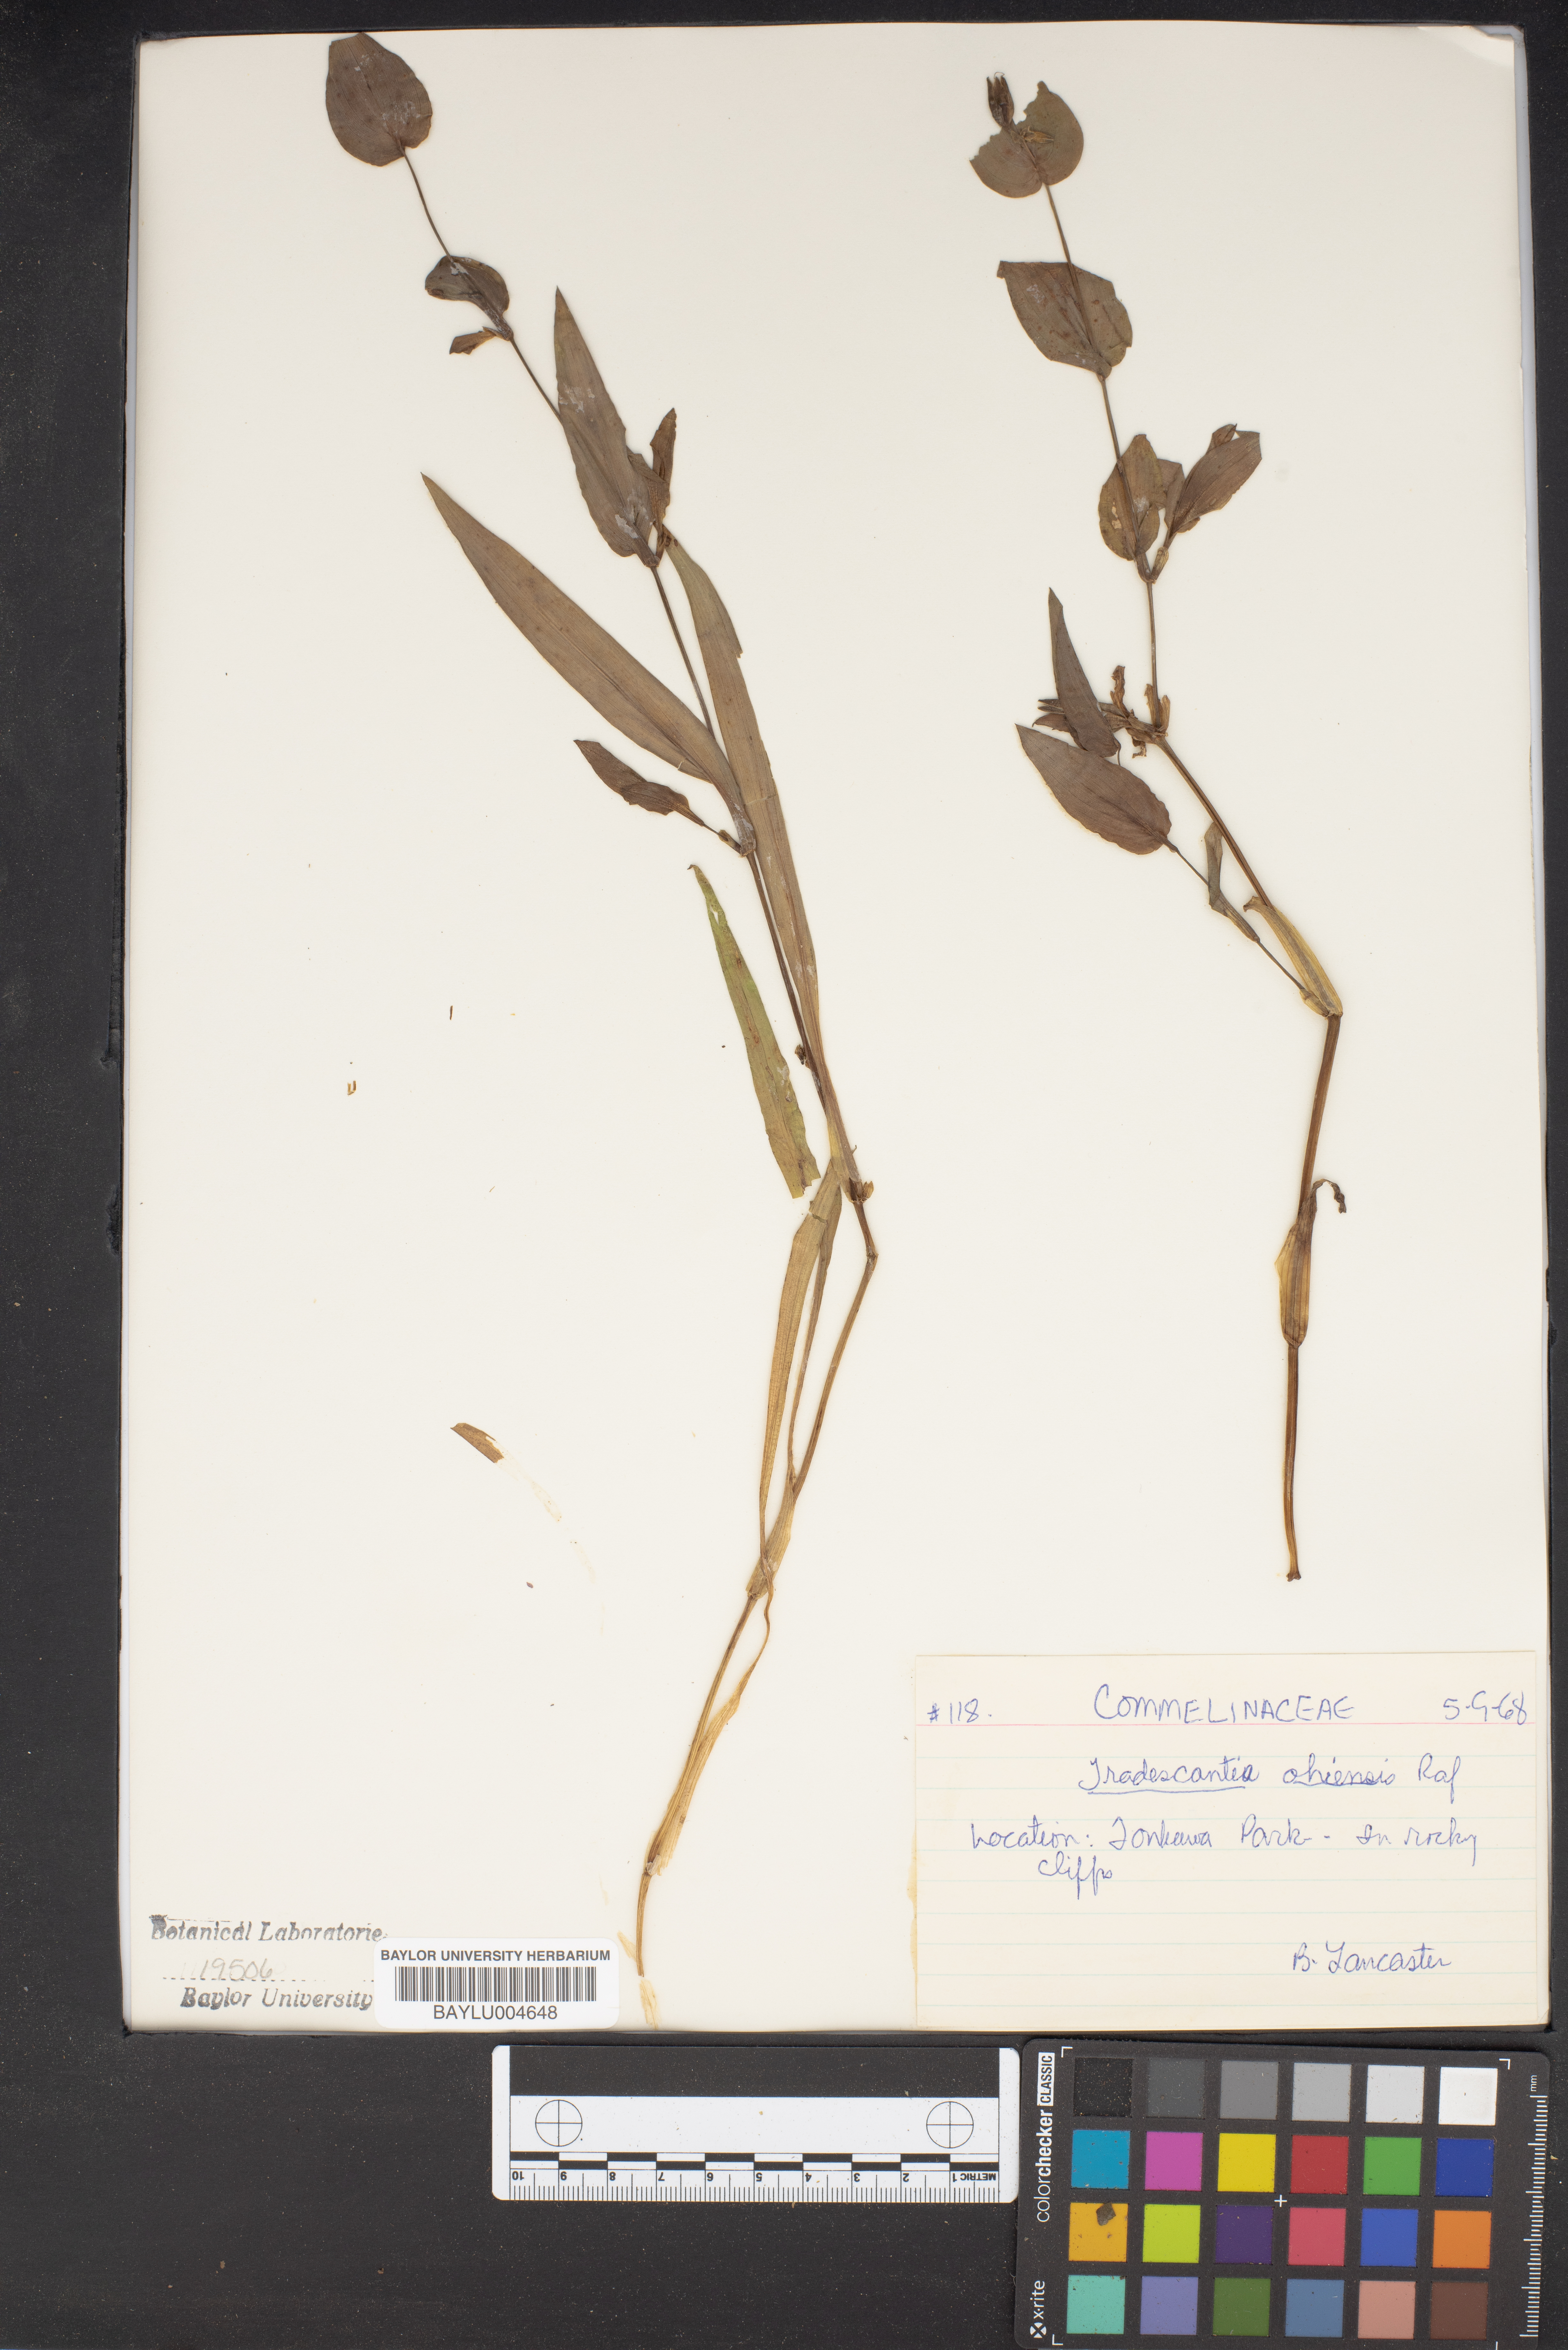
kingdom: Plantae
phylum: Tracheophyta
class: Liliopsida
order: Commelinales
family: Commelinaceae
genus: Tradescantia
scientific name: Tradescantia ohiensis
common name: Ohio spiderwort
